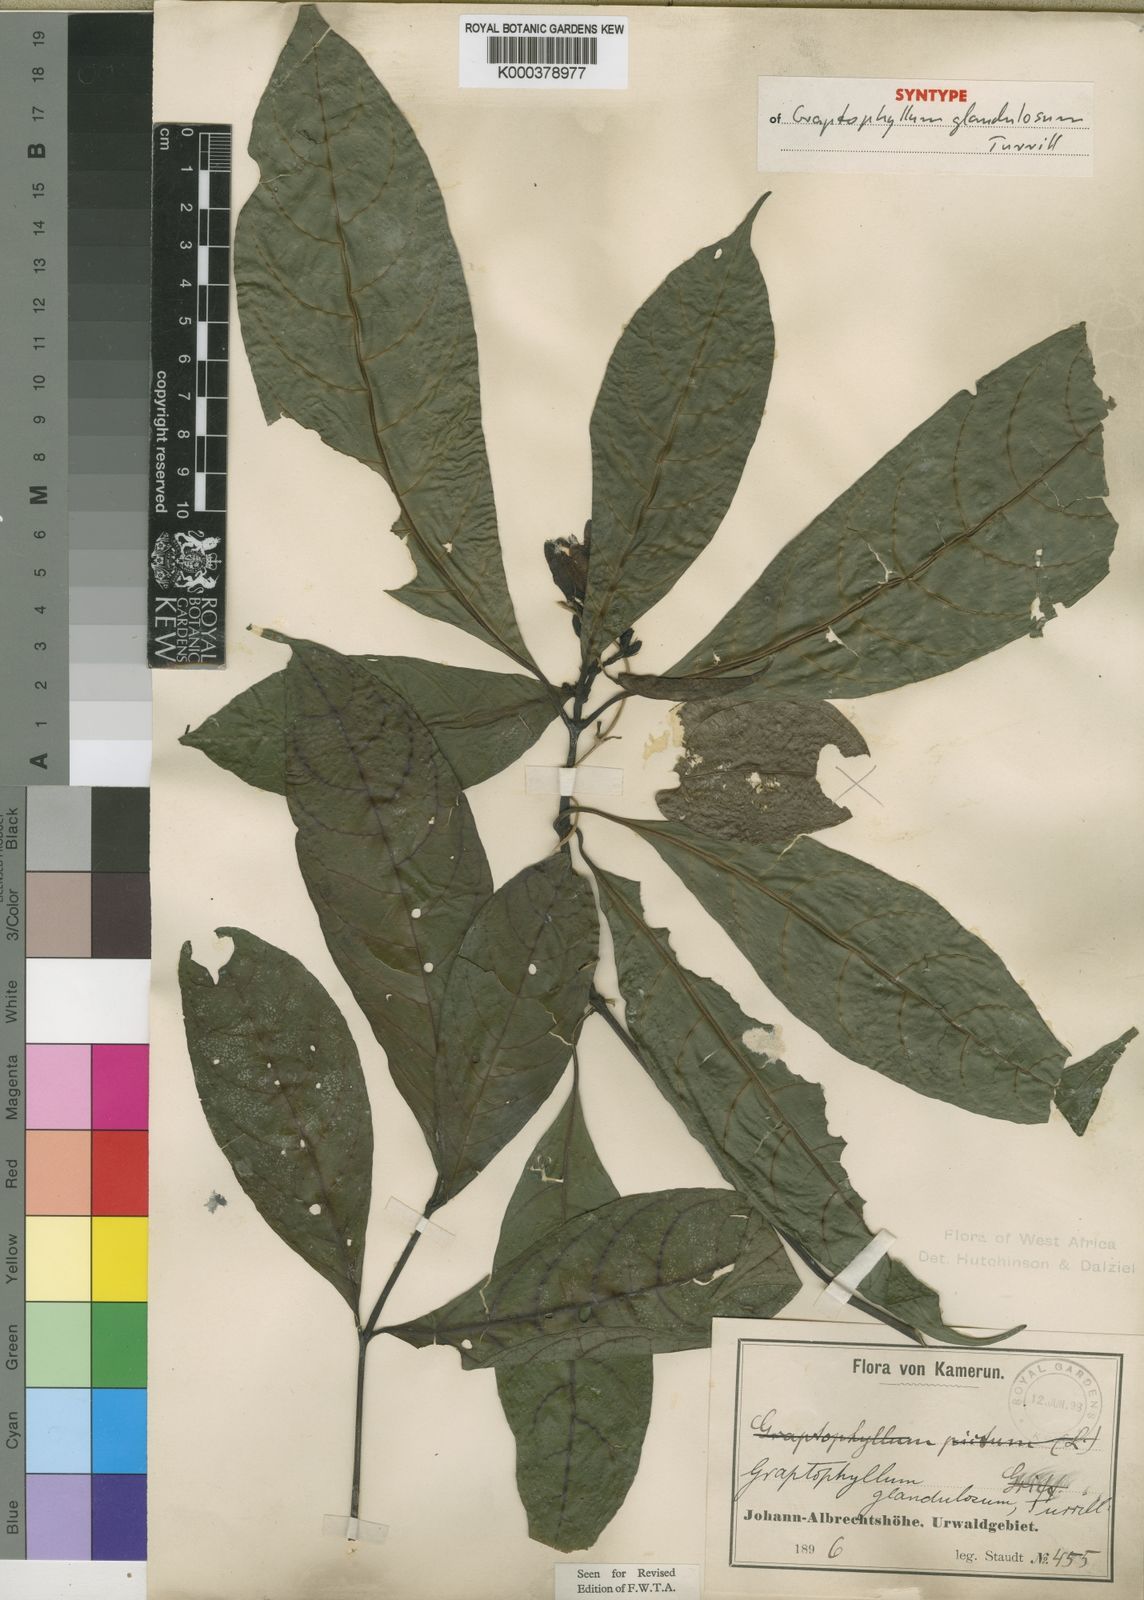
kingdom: Plantae
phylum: Tracheophyta
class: Magnoliopsida
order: Lamiales
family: Acanthaceae
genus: Graptophyllum
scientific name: Graptophyllum glandulosum
